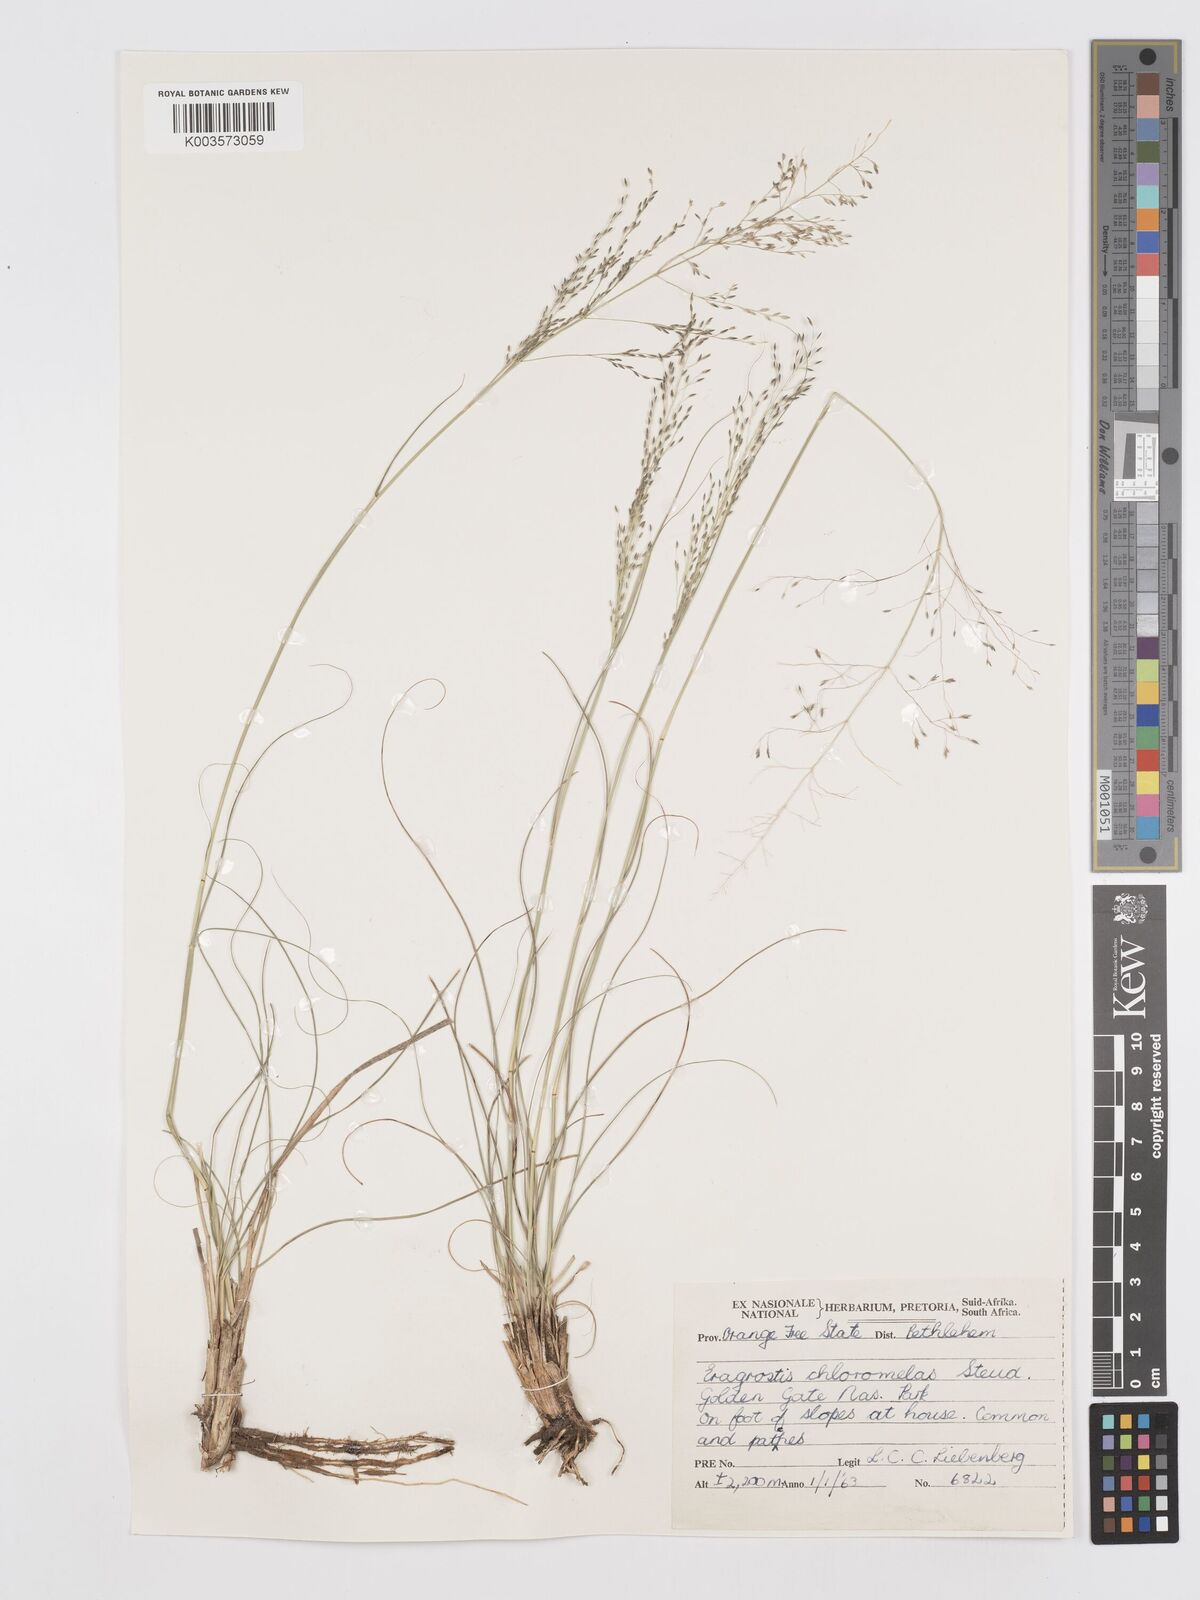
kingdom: Plantae
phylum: Tracheophyta
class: Liliopsida
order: Poales
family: Poaceae
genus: Eragrostis
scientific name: Eragrostis curvula
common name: African love-grass
